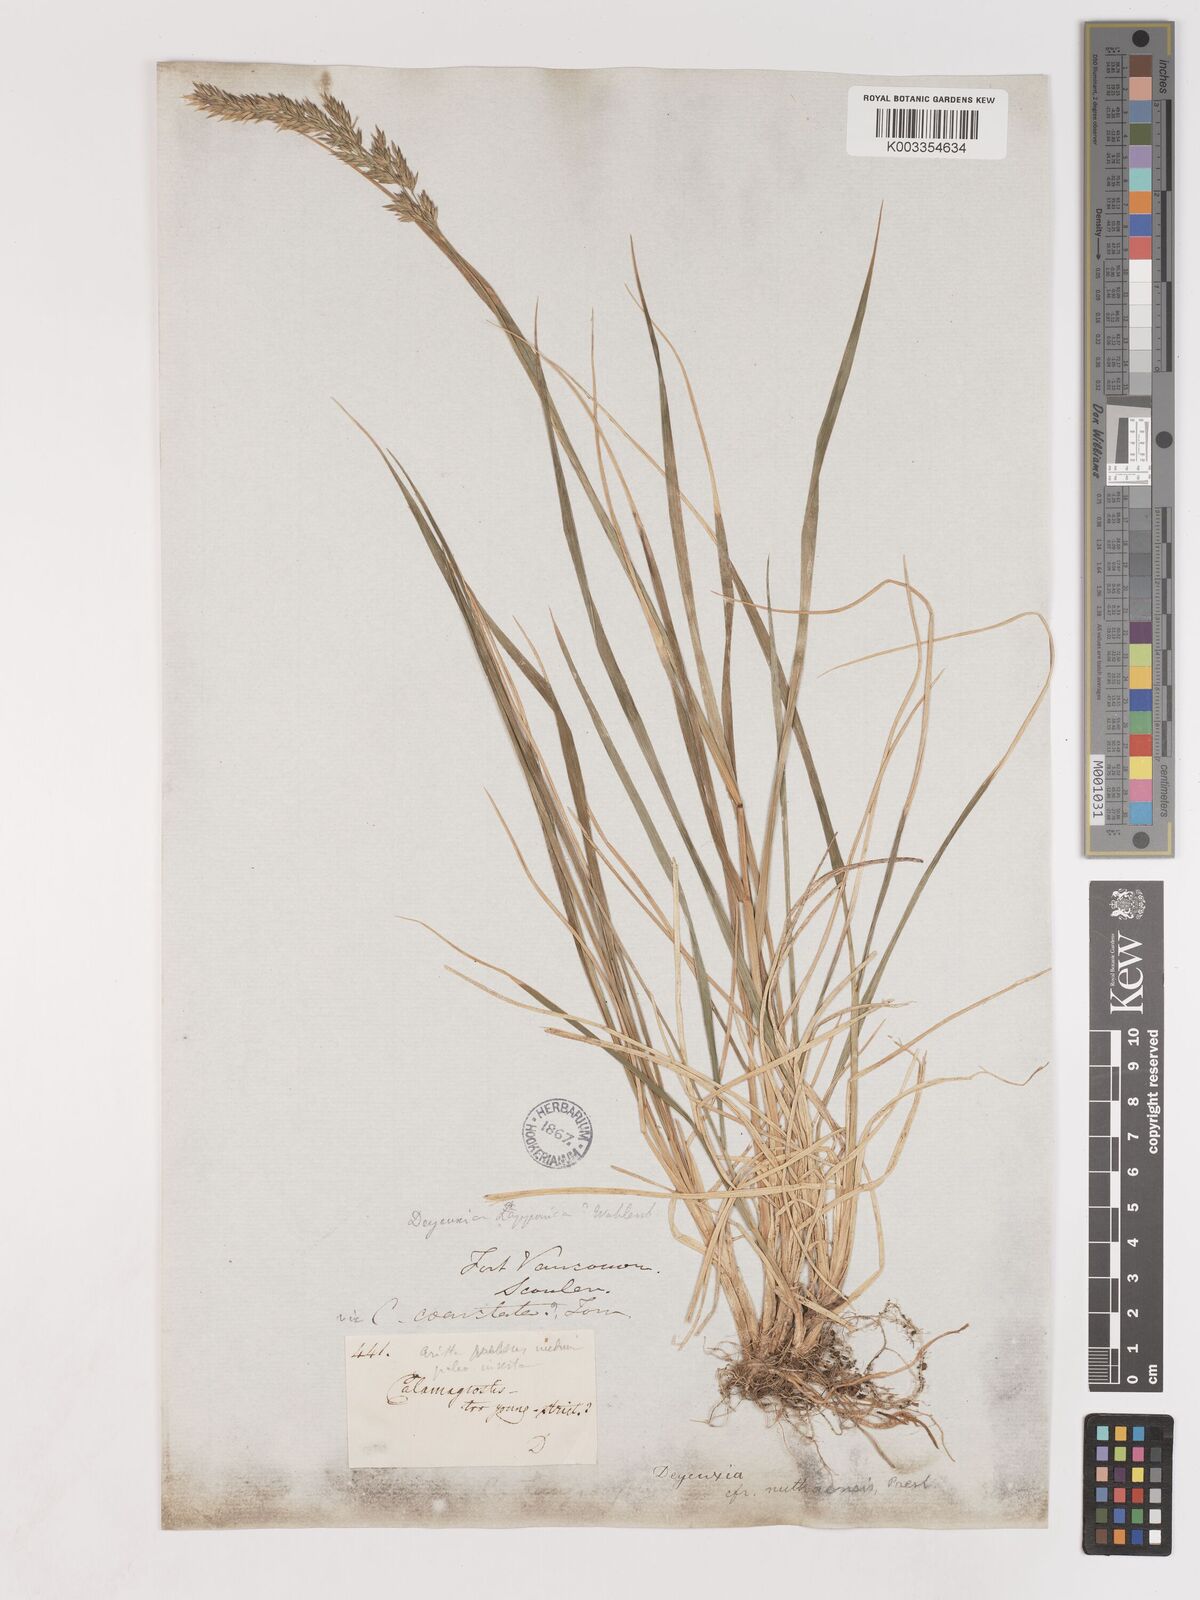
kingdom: Plantae
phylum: Tracheophyta
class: Liliopsida
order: Poales
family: Poaceae
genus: Calamagrostis
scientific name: Calamagrostis nutkaensis
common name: Pacific reed grass
